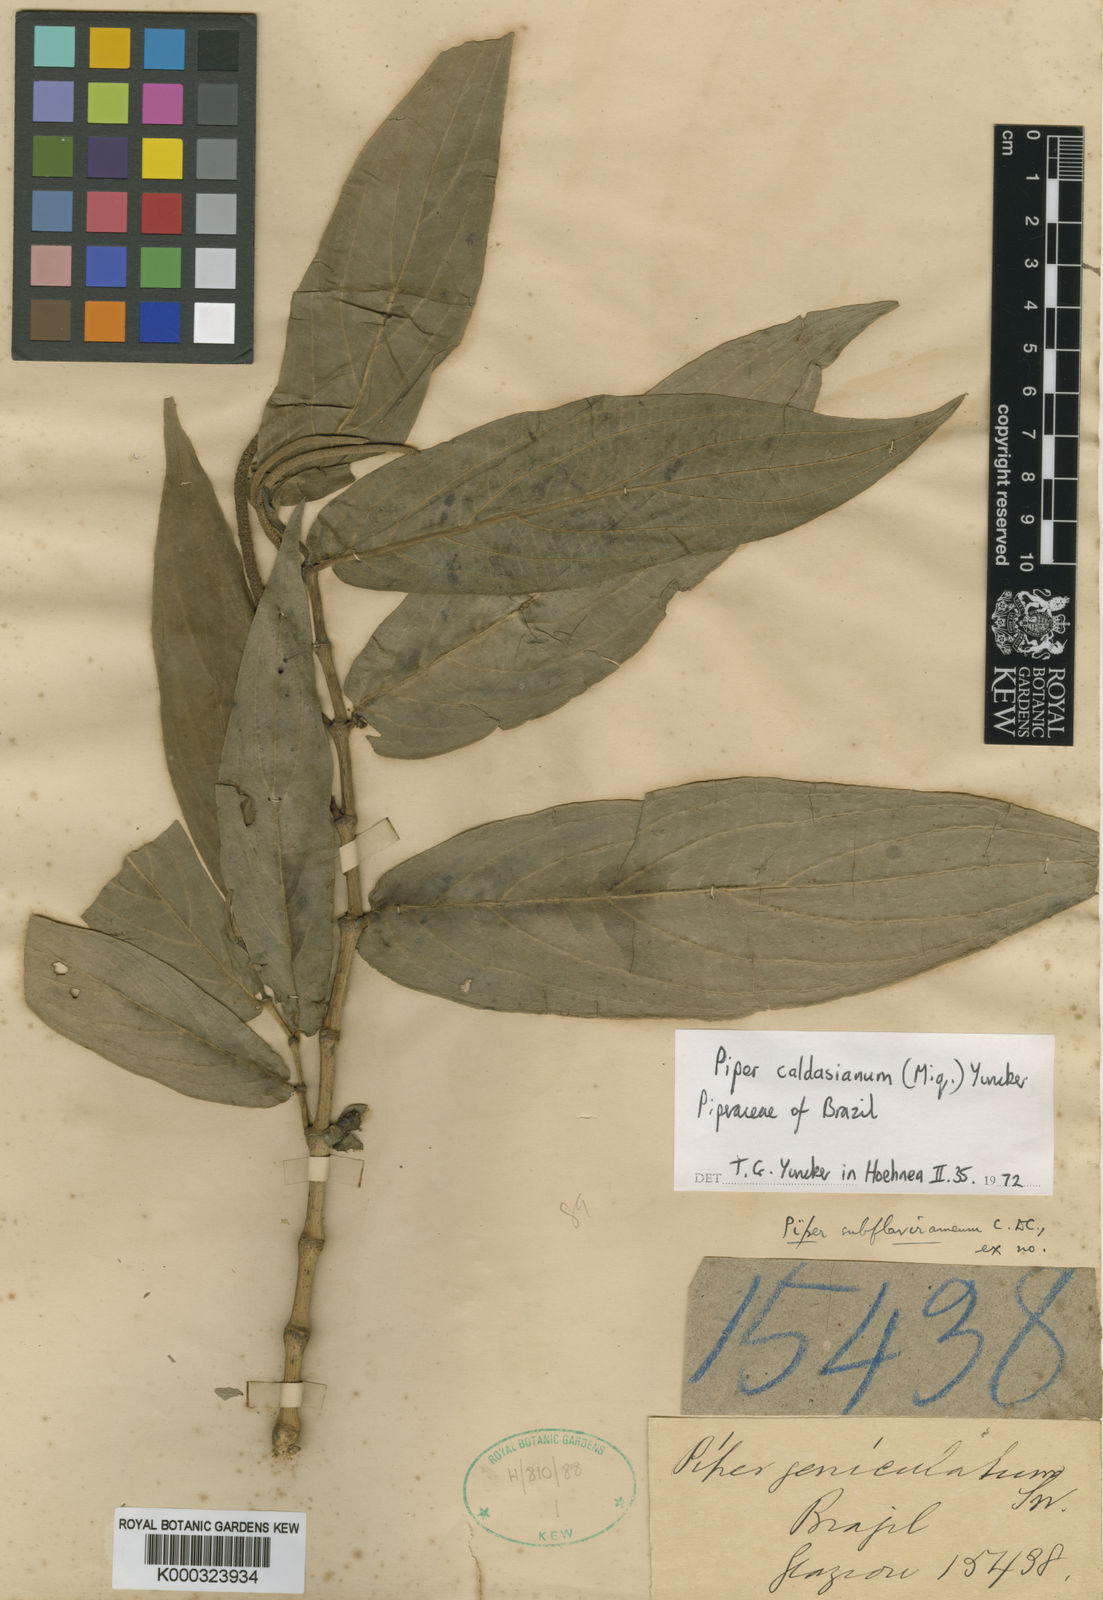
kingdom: Plantae
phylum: Tracheophyta
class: Magnoliopsida
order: Piperales
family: Piperaceae
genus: Piper
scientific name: Piper caldasianum
